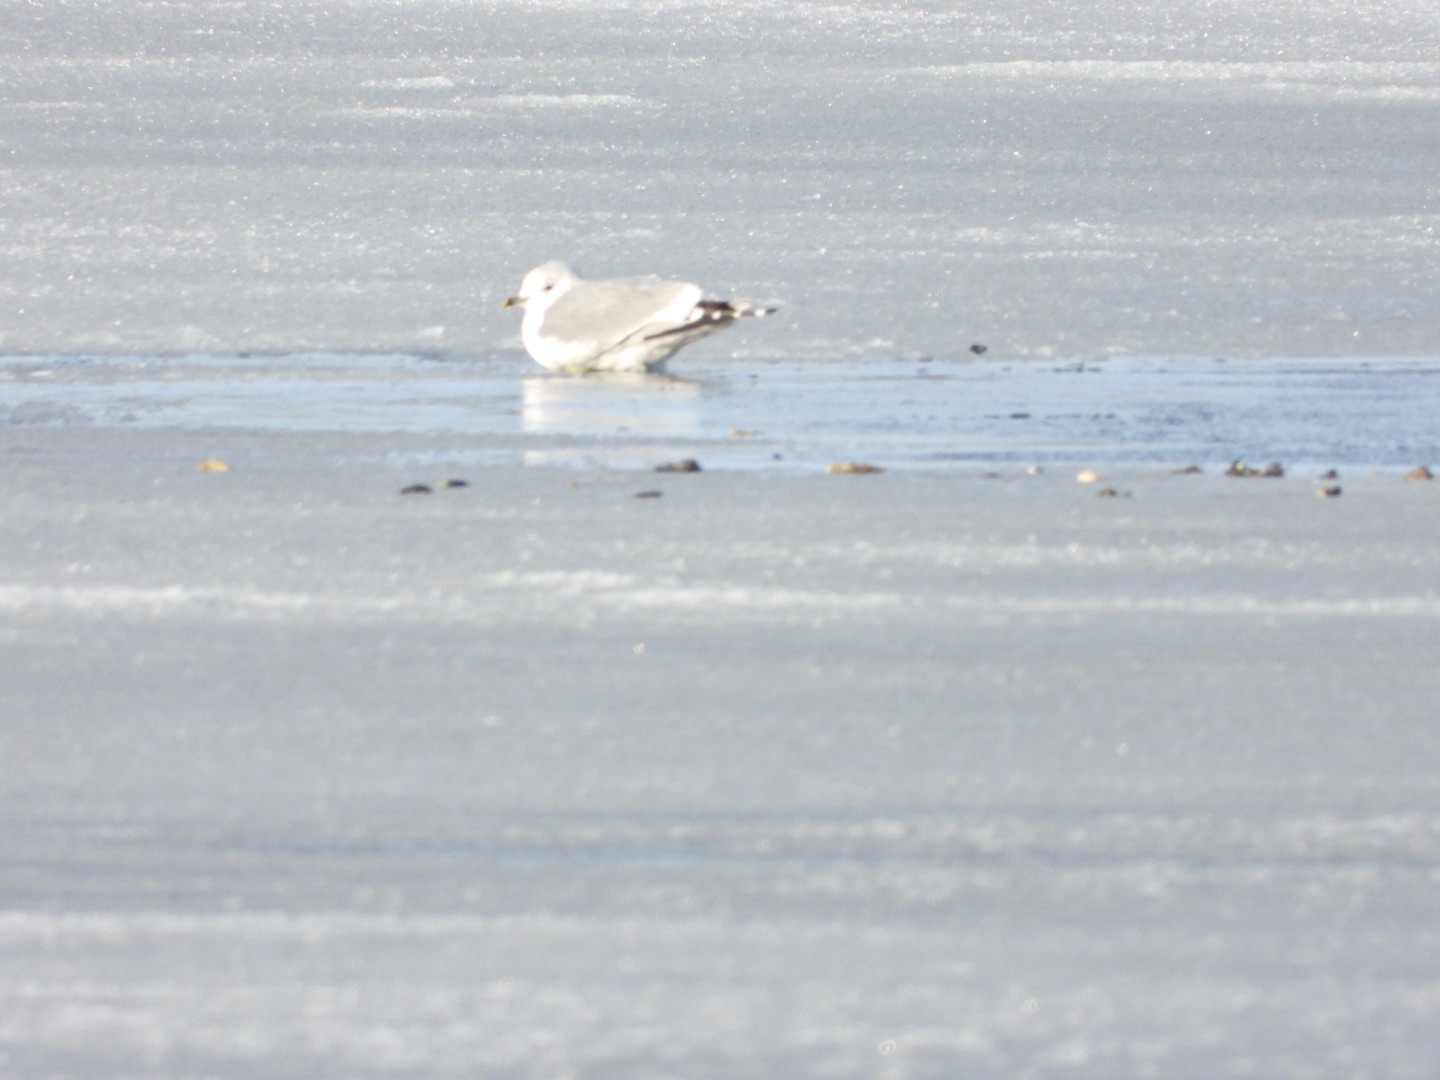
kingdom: Animalia
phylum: Chordata
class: Aves
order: Charadriiformes
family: Laridae
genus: Larus
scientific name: Larus canus
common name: Stormmåge
